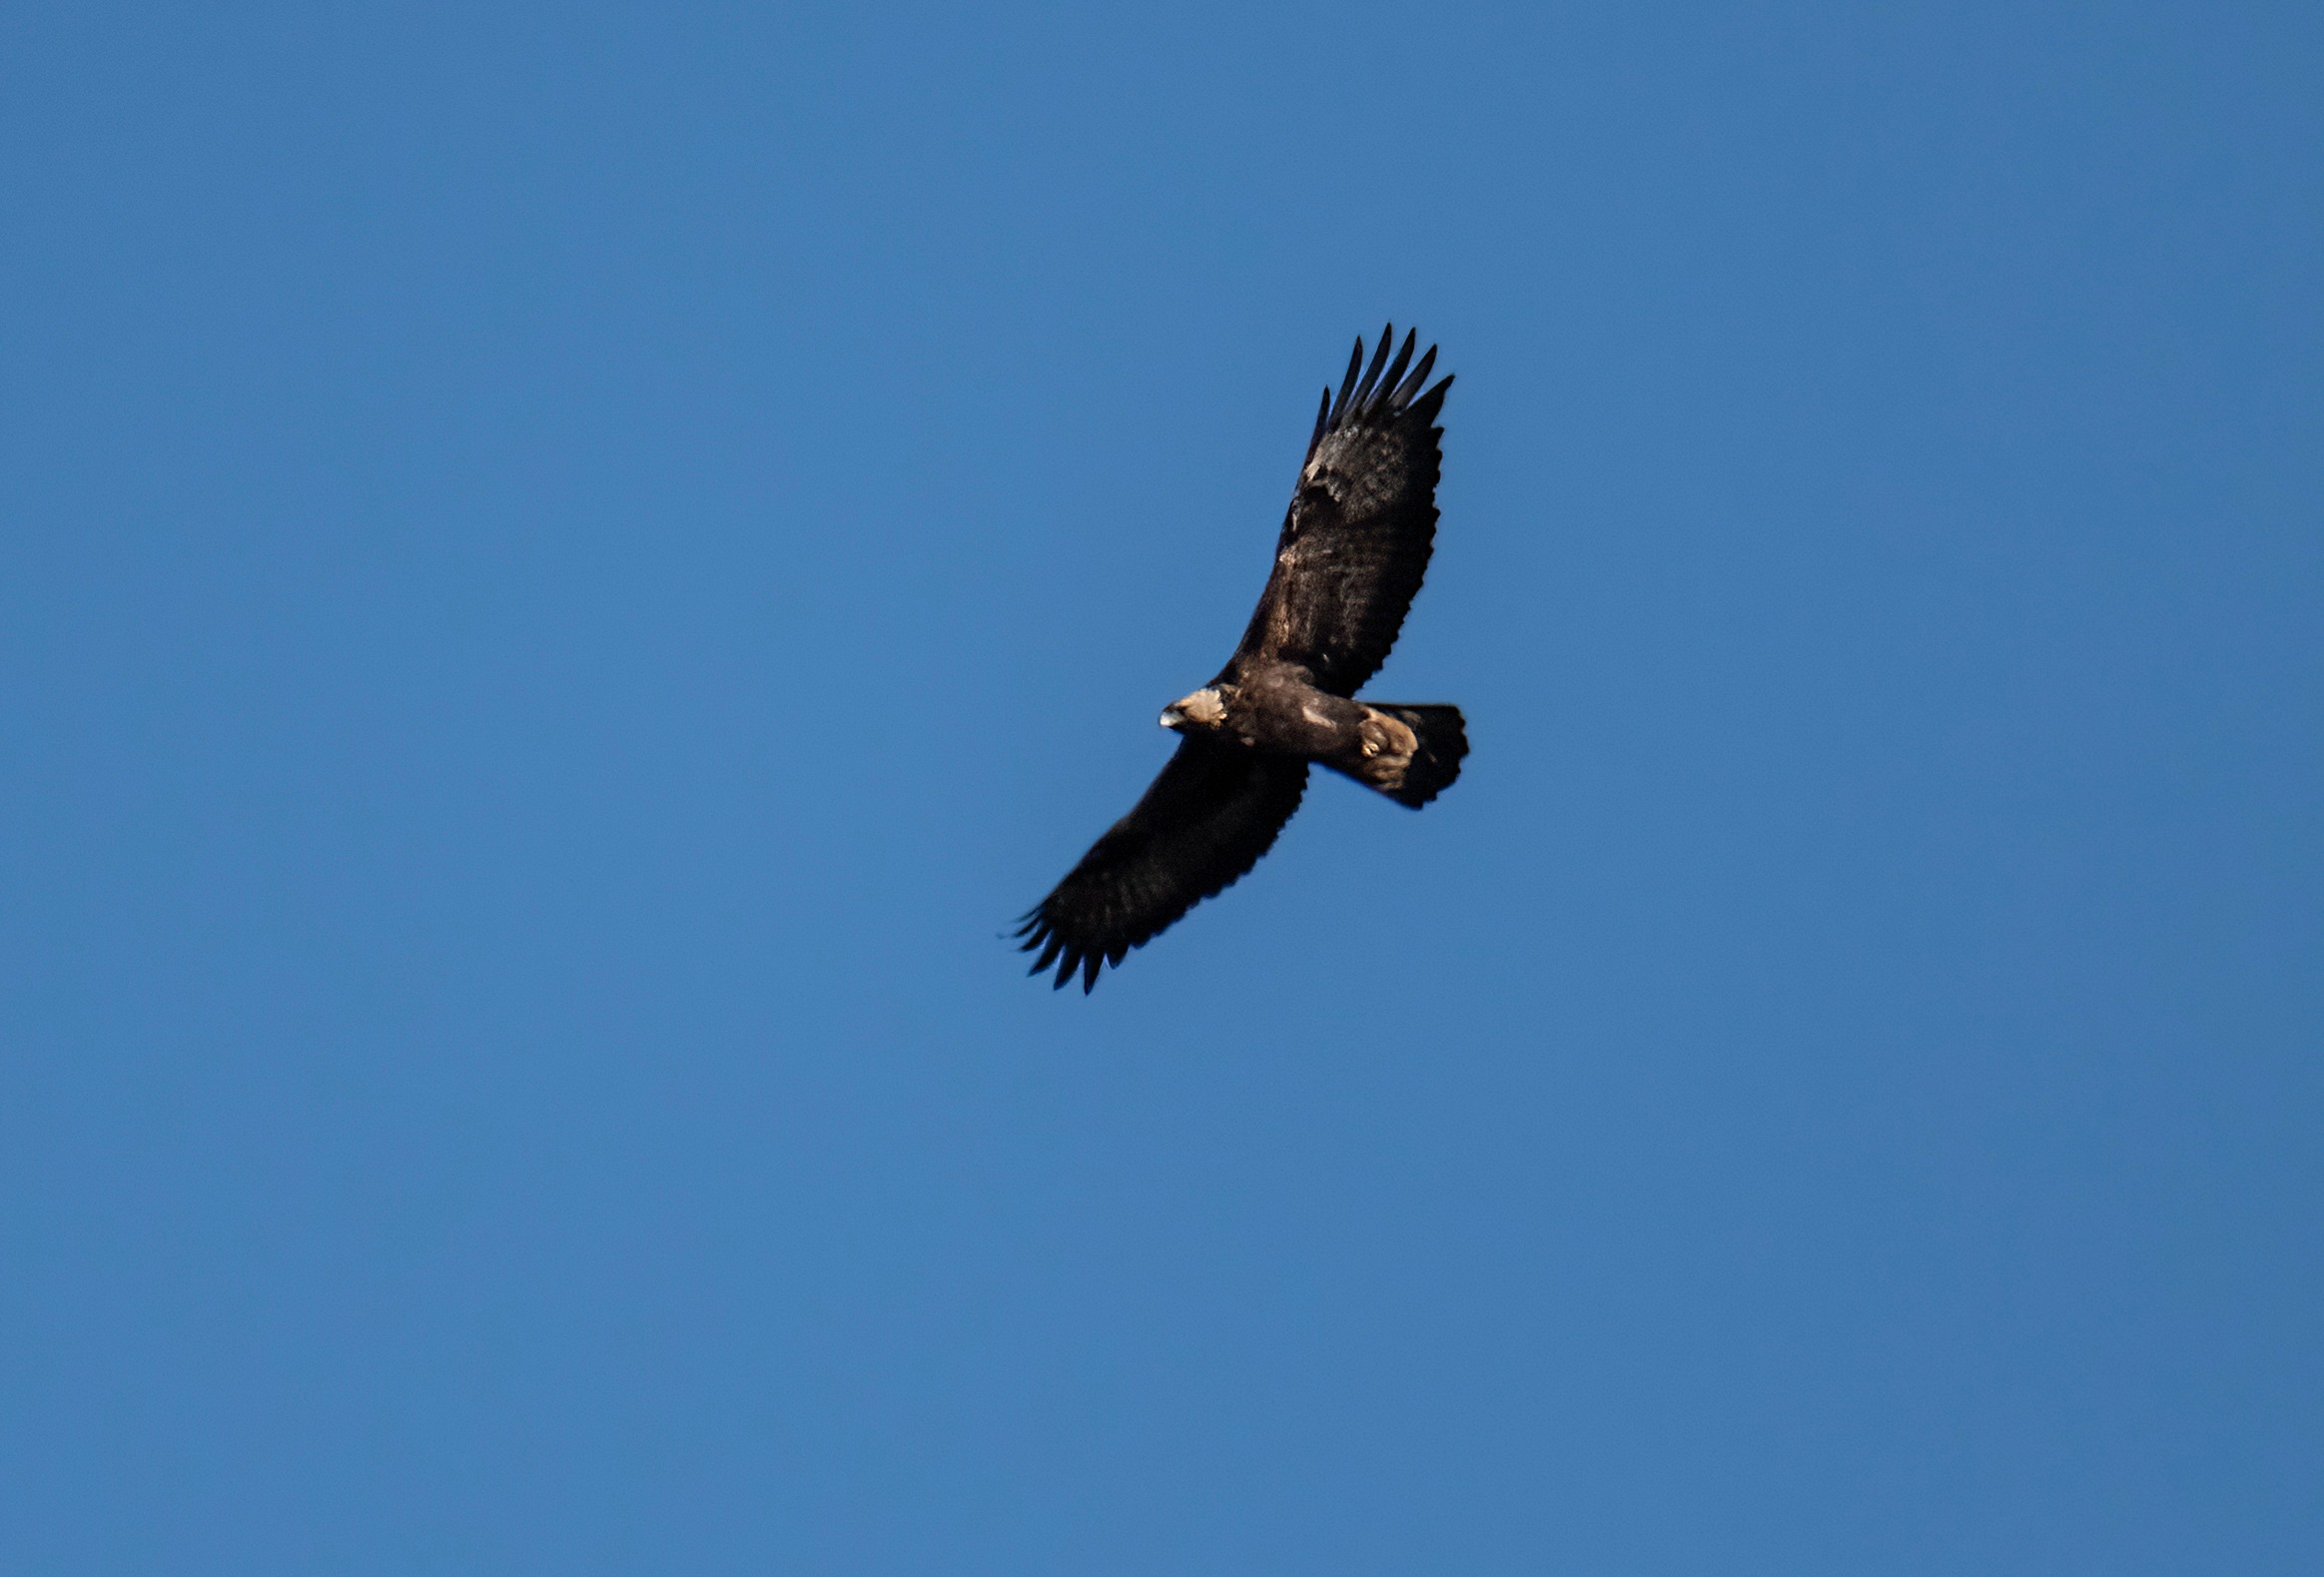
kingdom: Animalia
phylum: Chordata
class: Aves
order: Accipitriformes
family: Accipitridae
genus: Aquila
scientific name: Aquila chrysaetos
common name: Kongeørn
